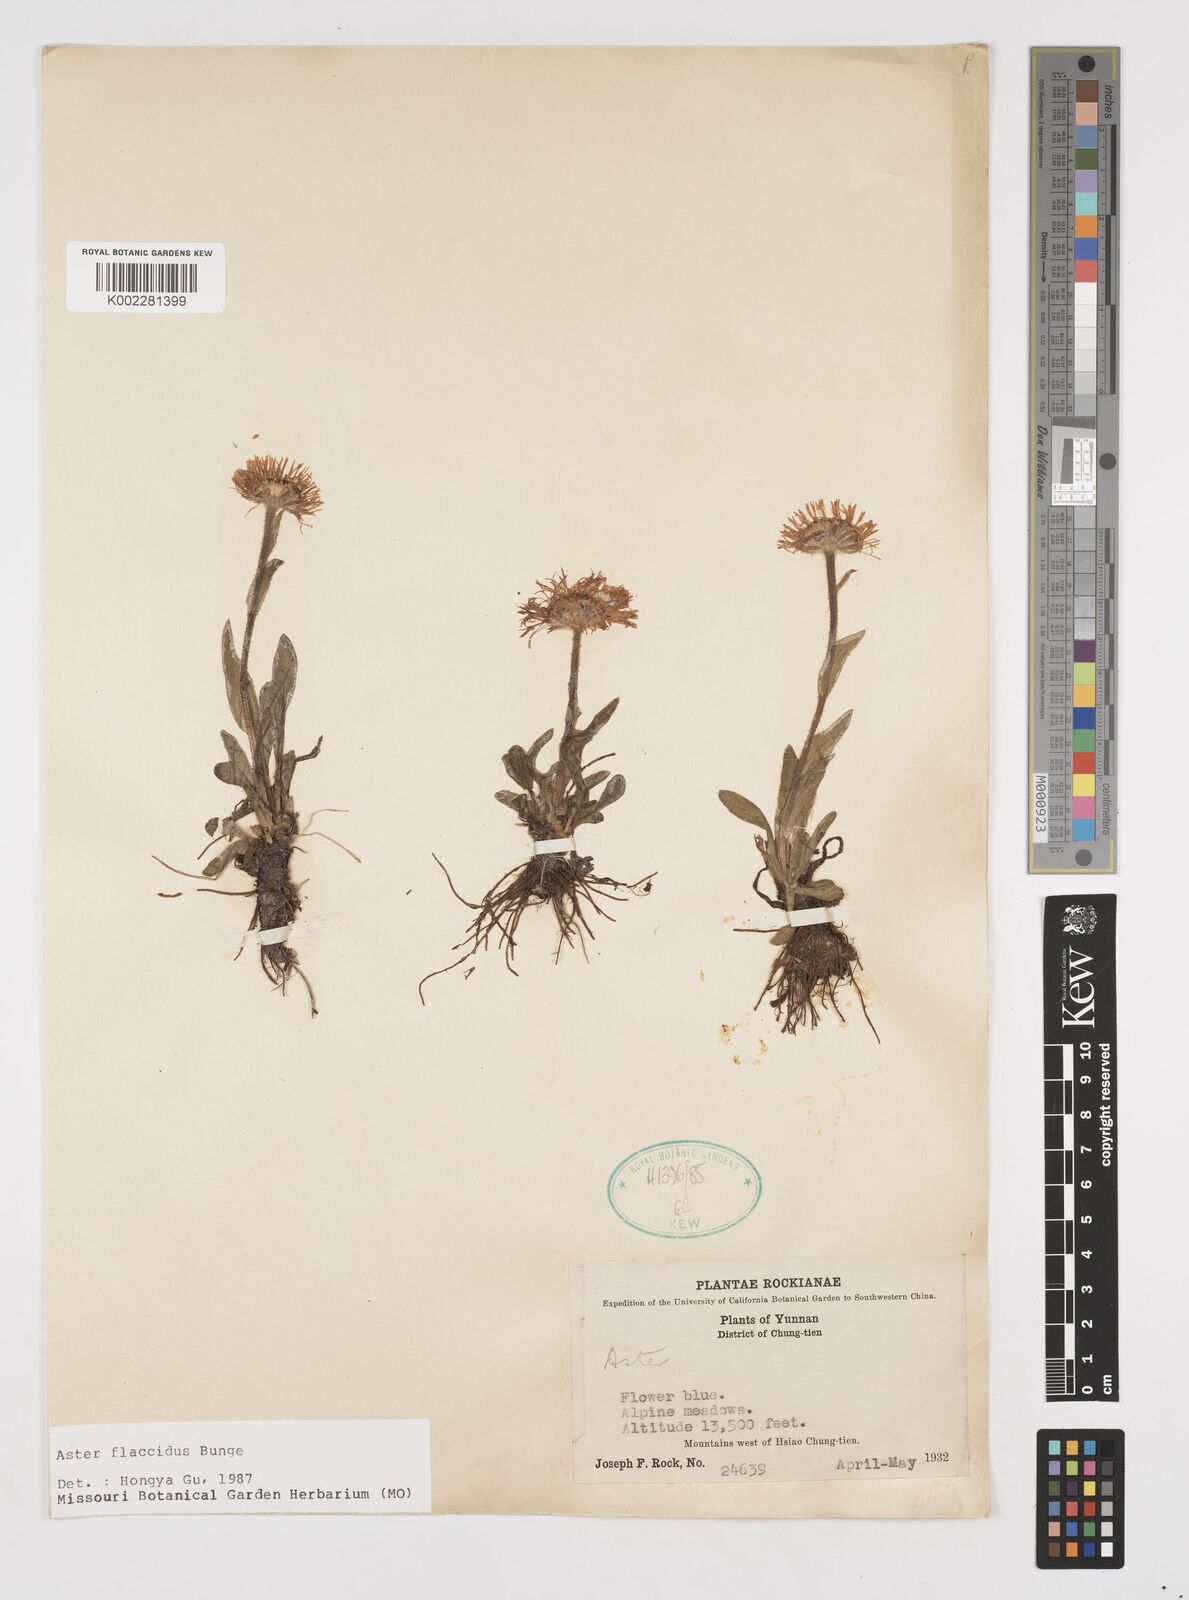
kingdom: Plantae
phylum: Tracheophyta
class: Magnoliopsida
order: Asterales
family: Asteraceae
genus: Tibetiodes
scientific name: Tibetiodes flaccida
